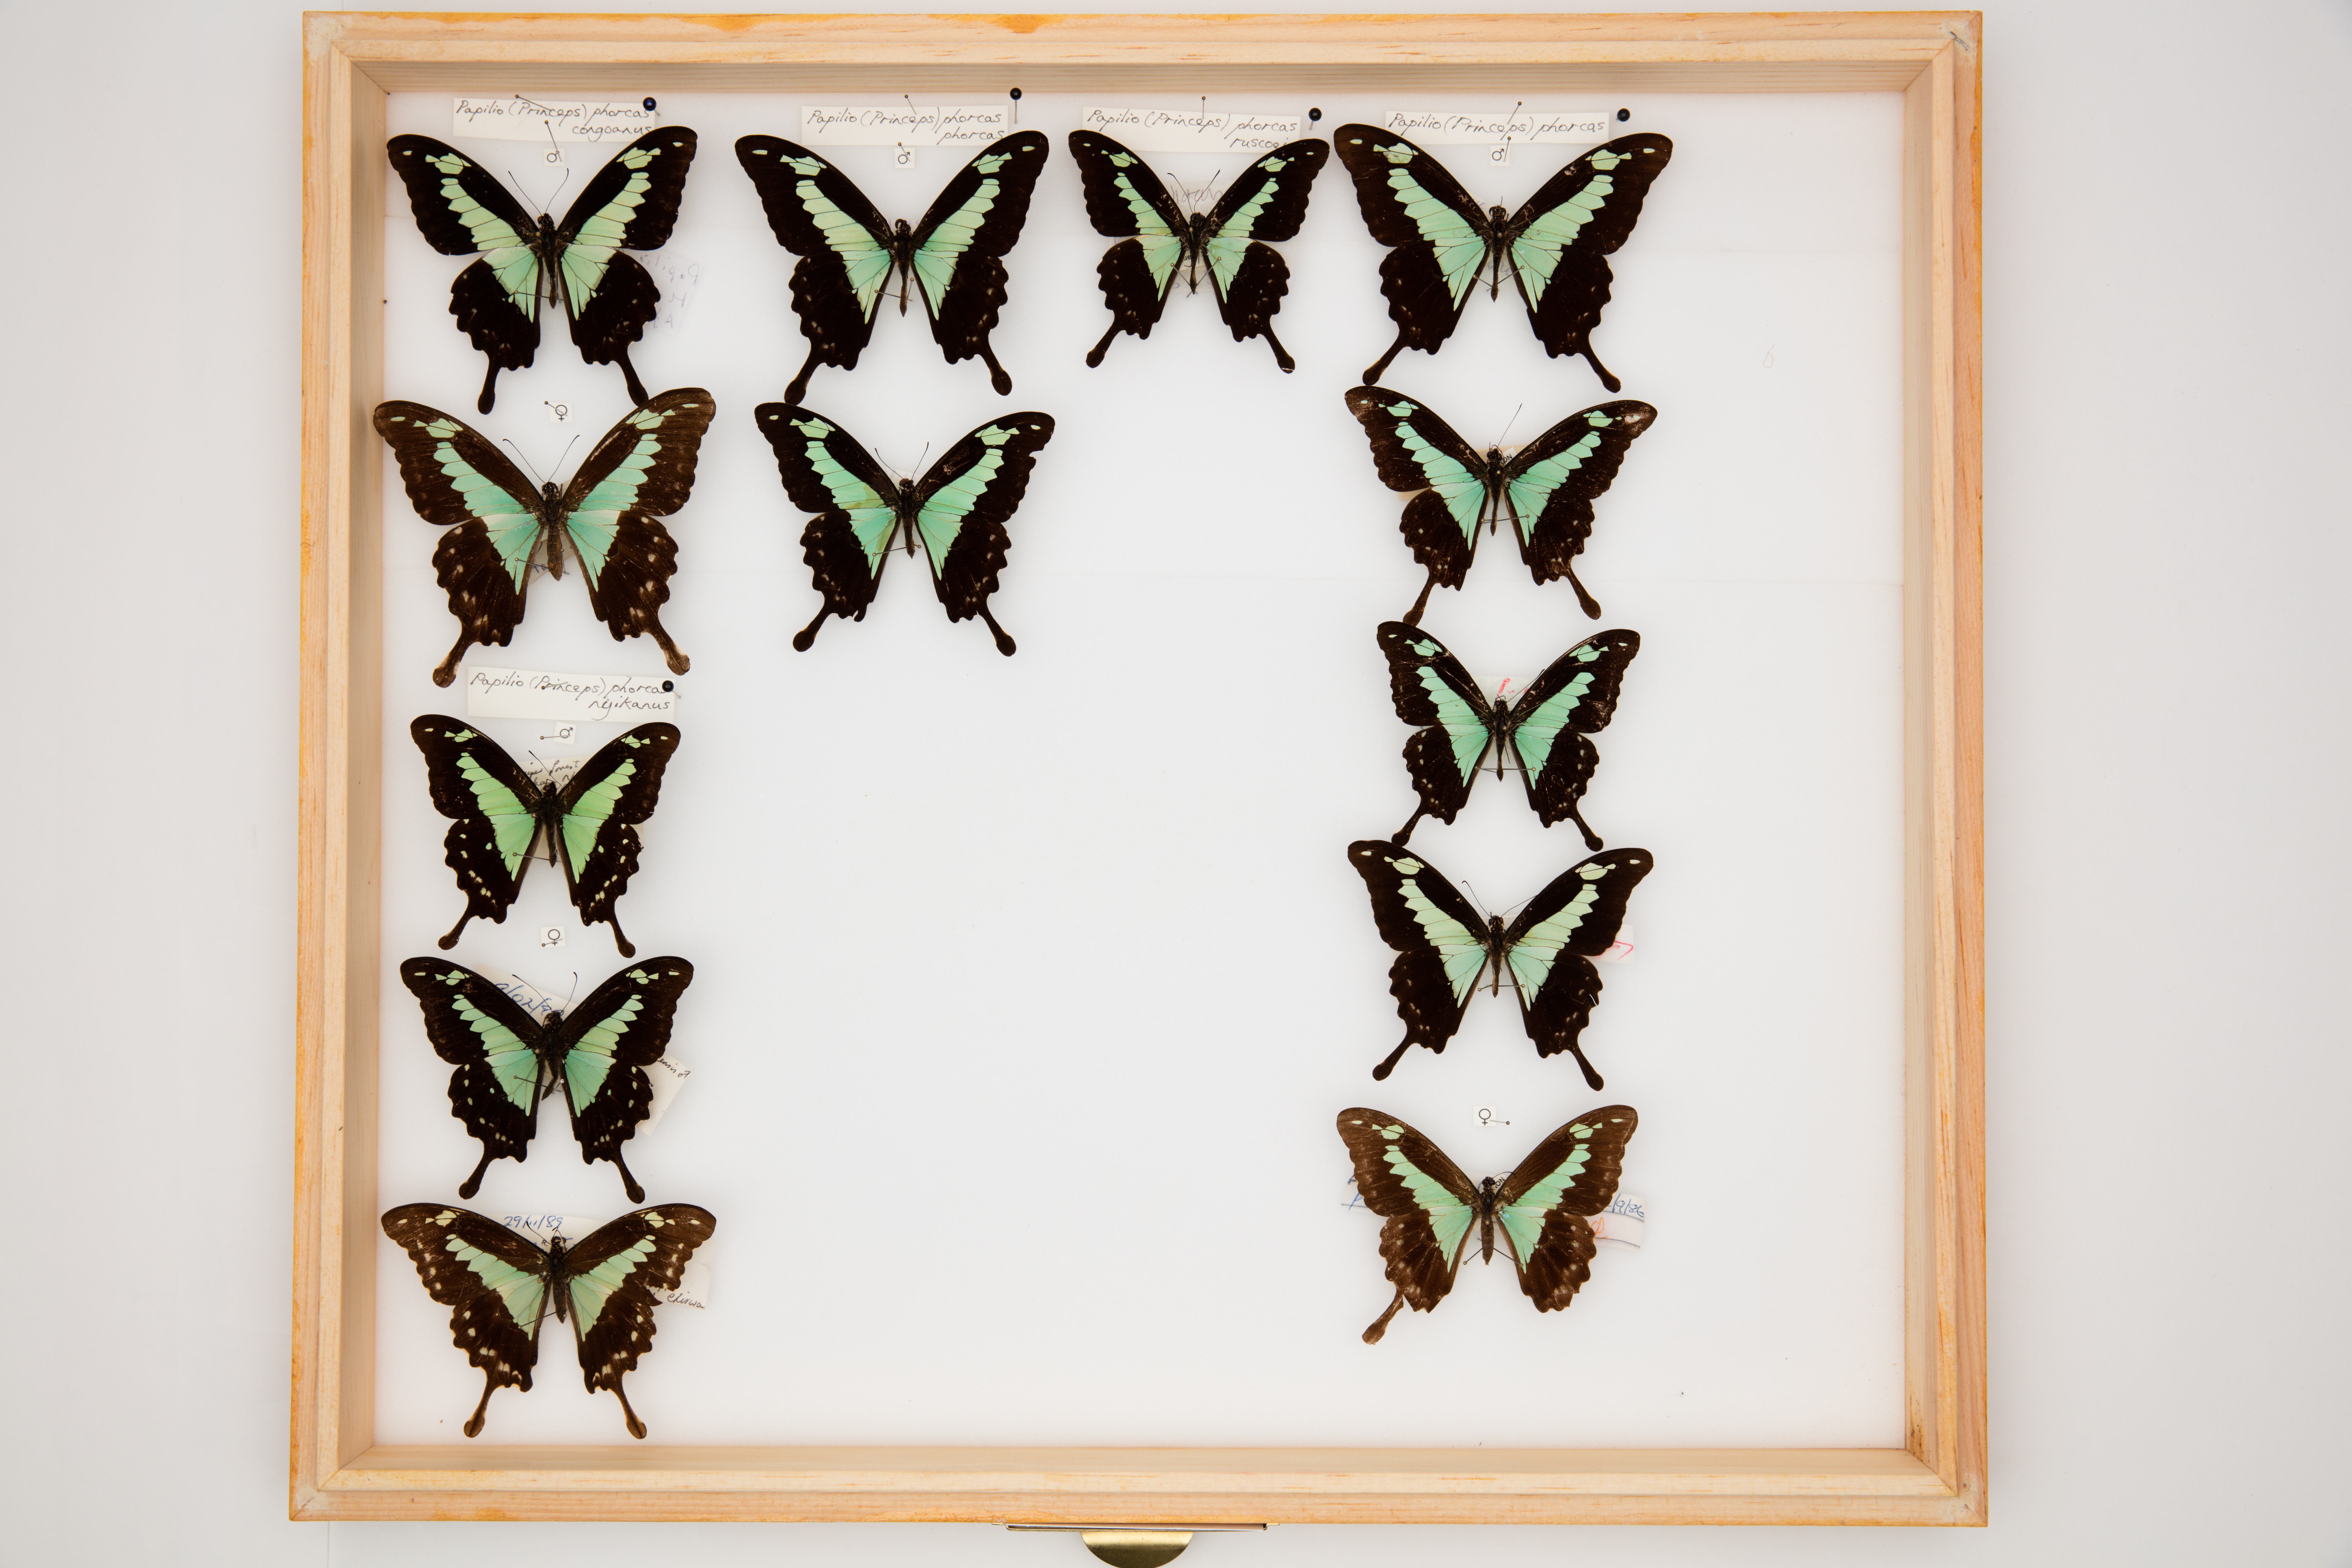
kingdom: Animalia
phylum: Arthropoda
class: Insecta
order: Lepidoptera
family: Papilionidae
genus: Papilio
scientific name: Papilio phorcas
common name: Apple-green swallowtail
